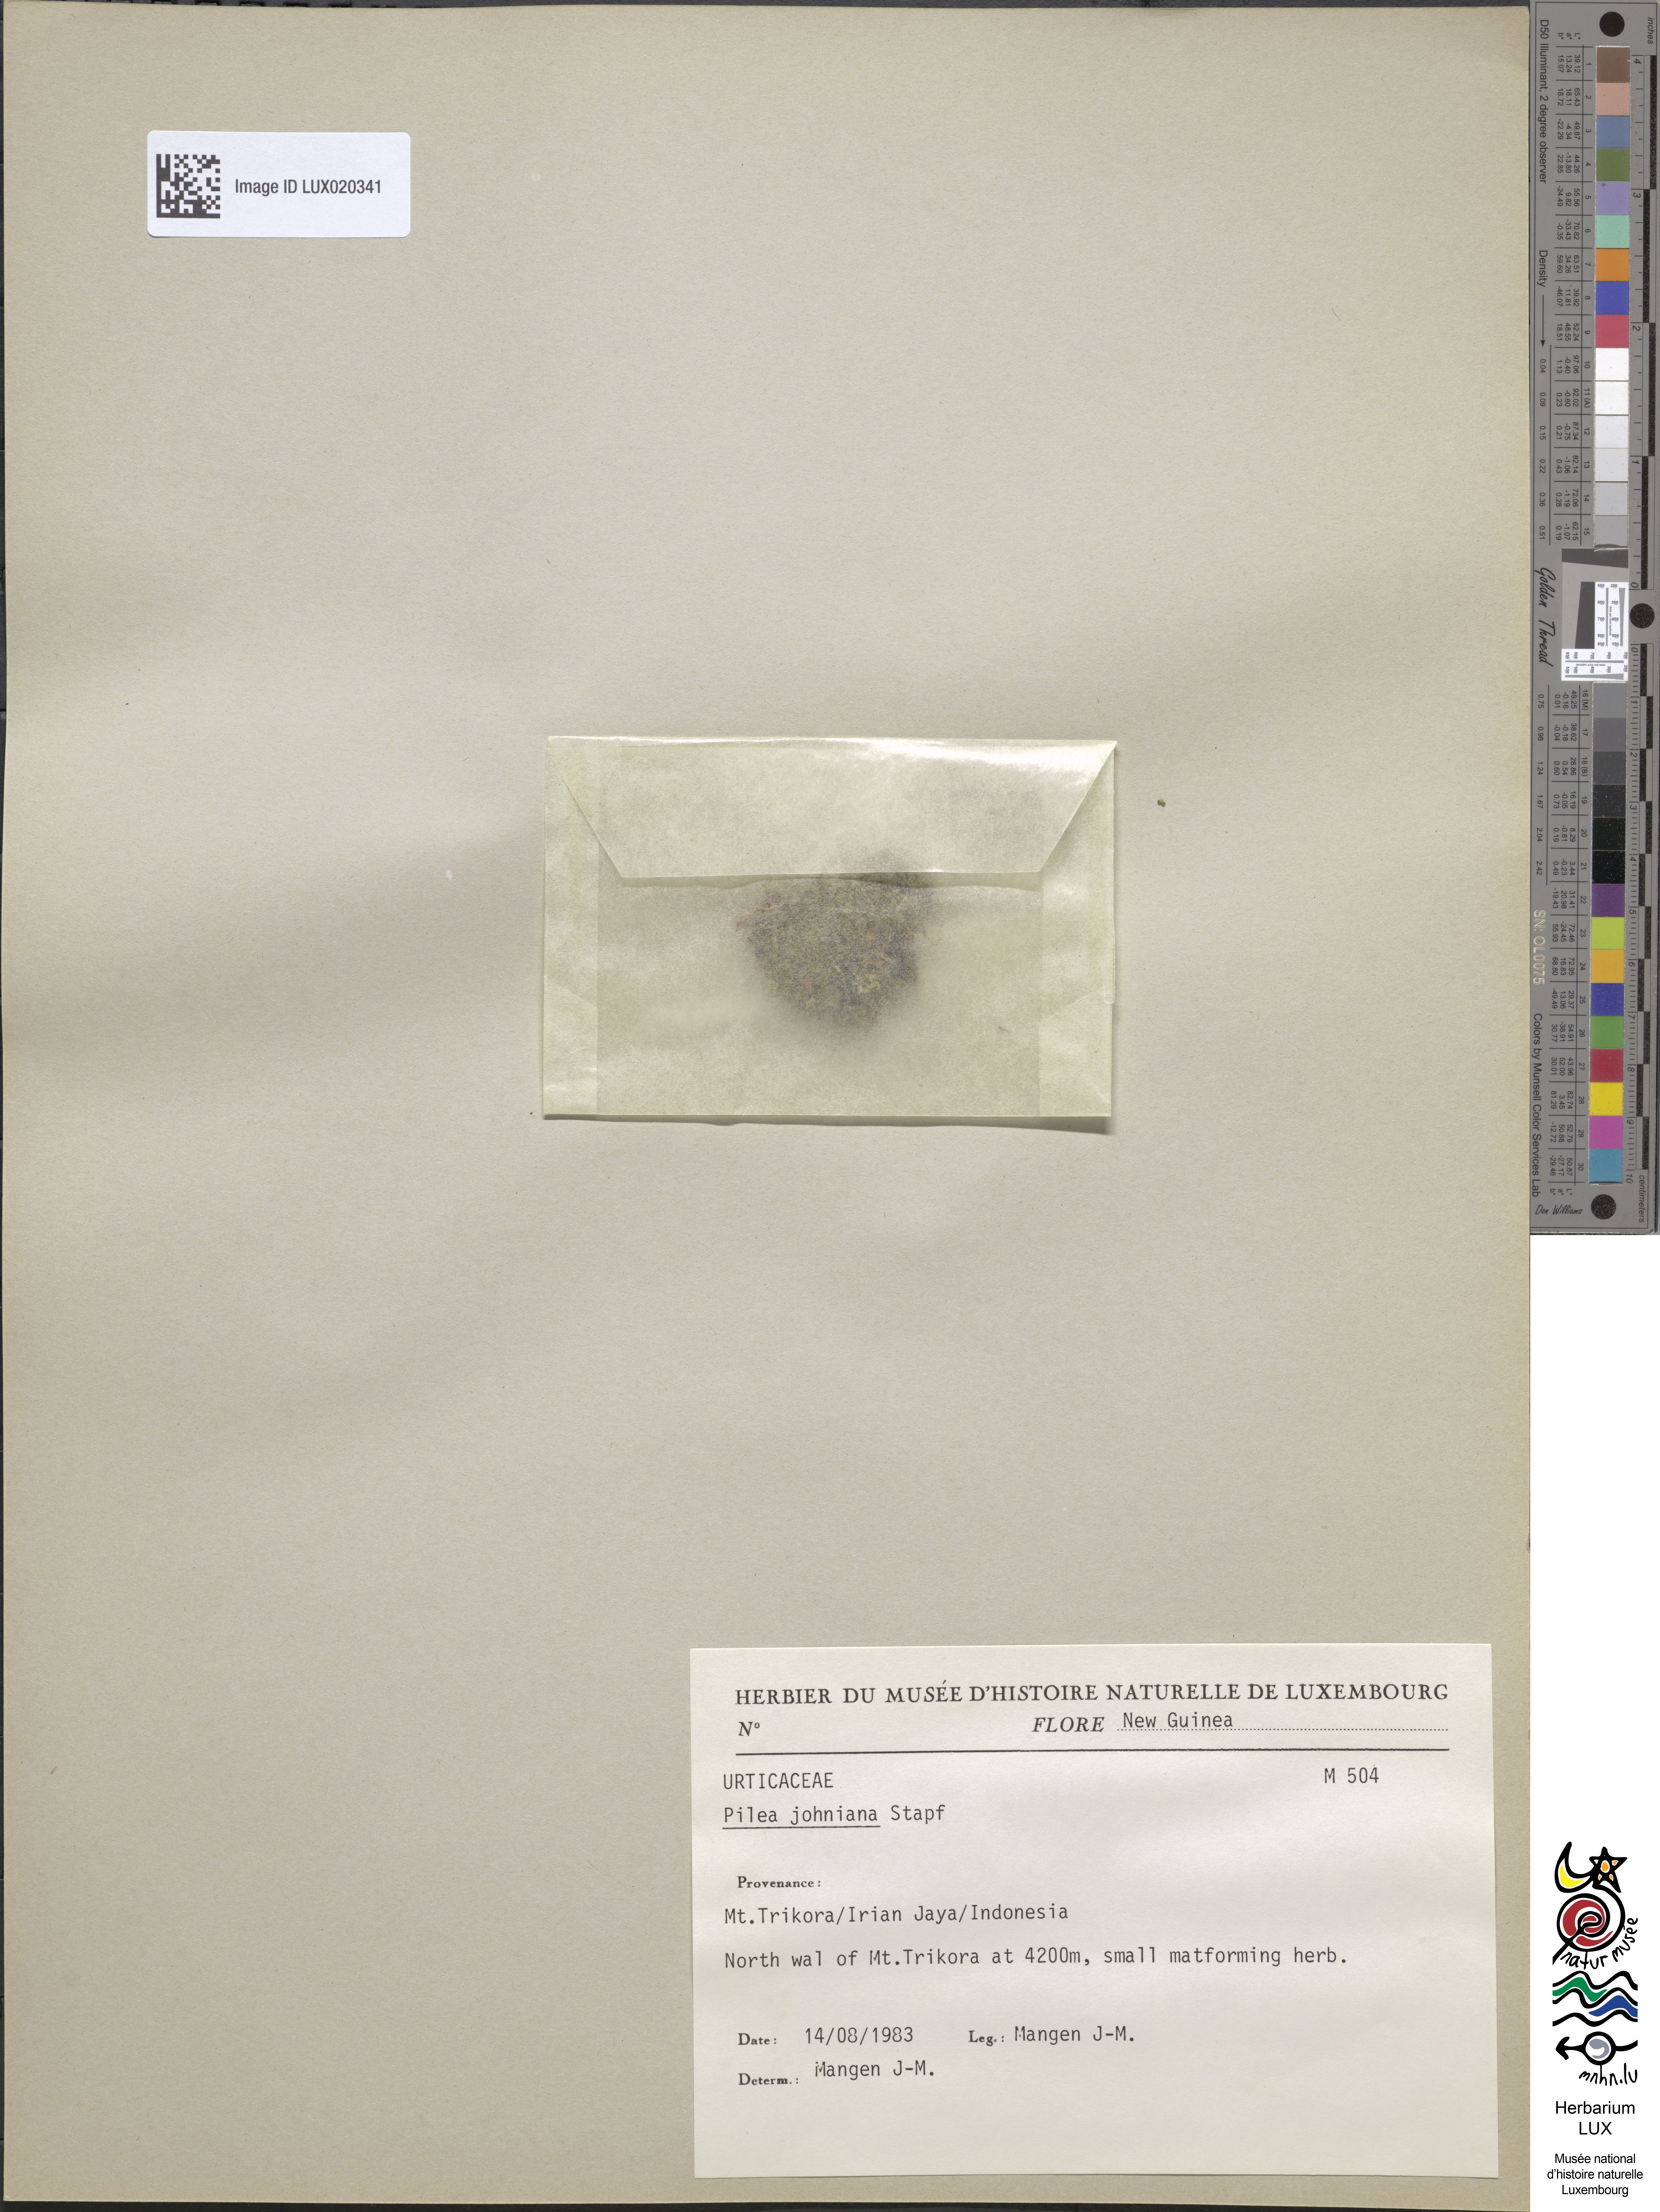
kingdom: Plantae
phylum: Tracheophyta
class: Magnoliopsida
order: Rosales
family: Urticaceae
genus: Pilea
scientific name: Pilea johniana
